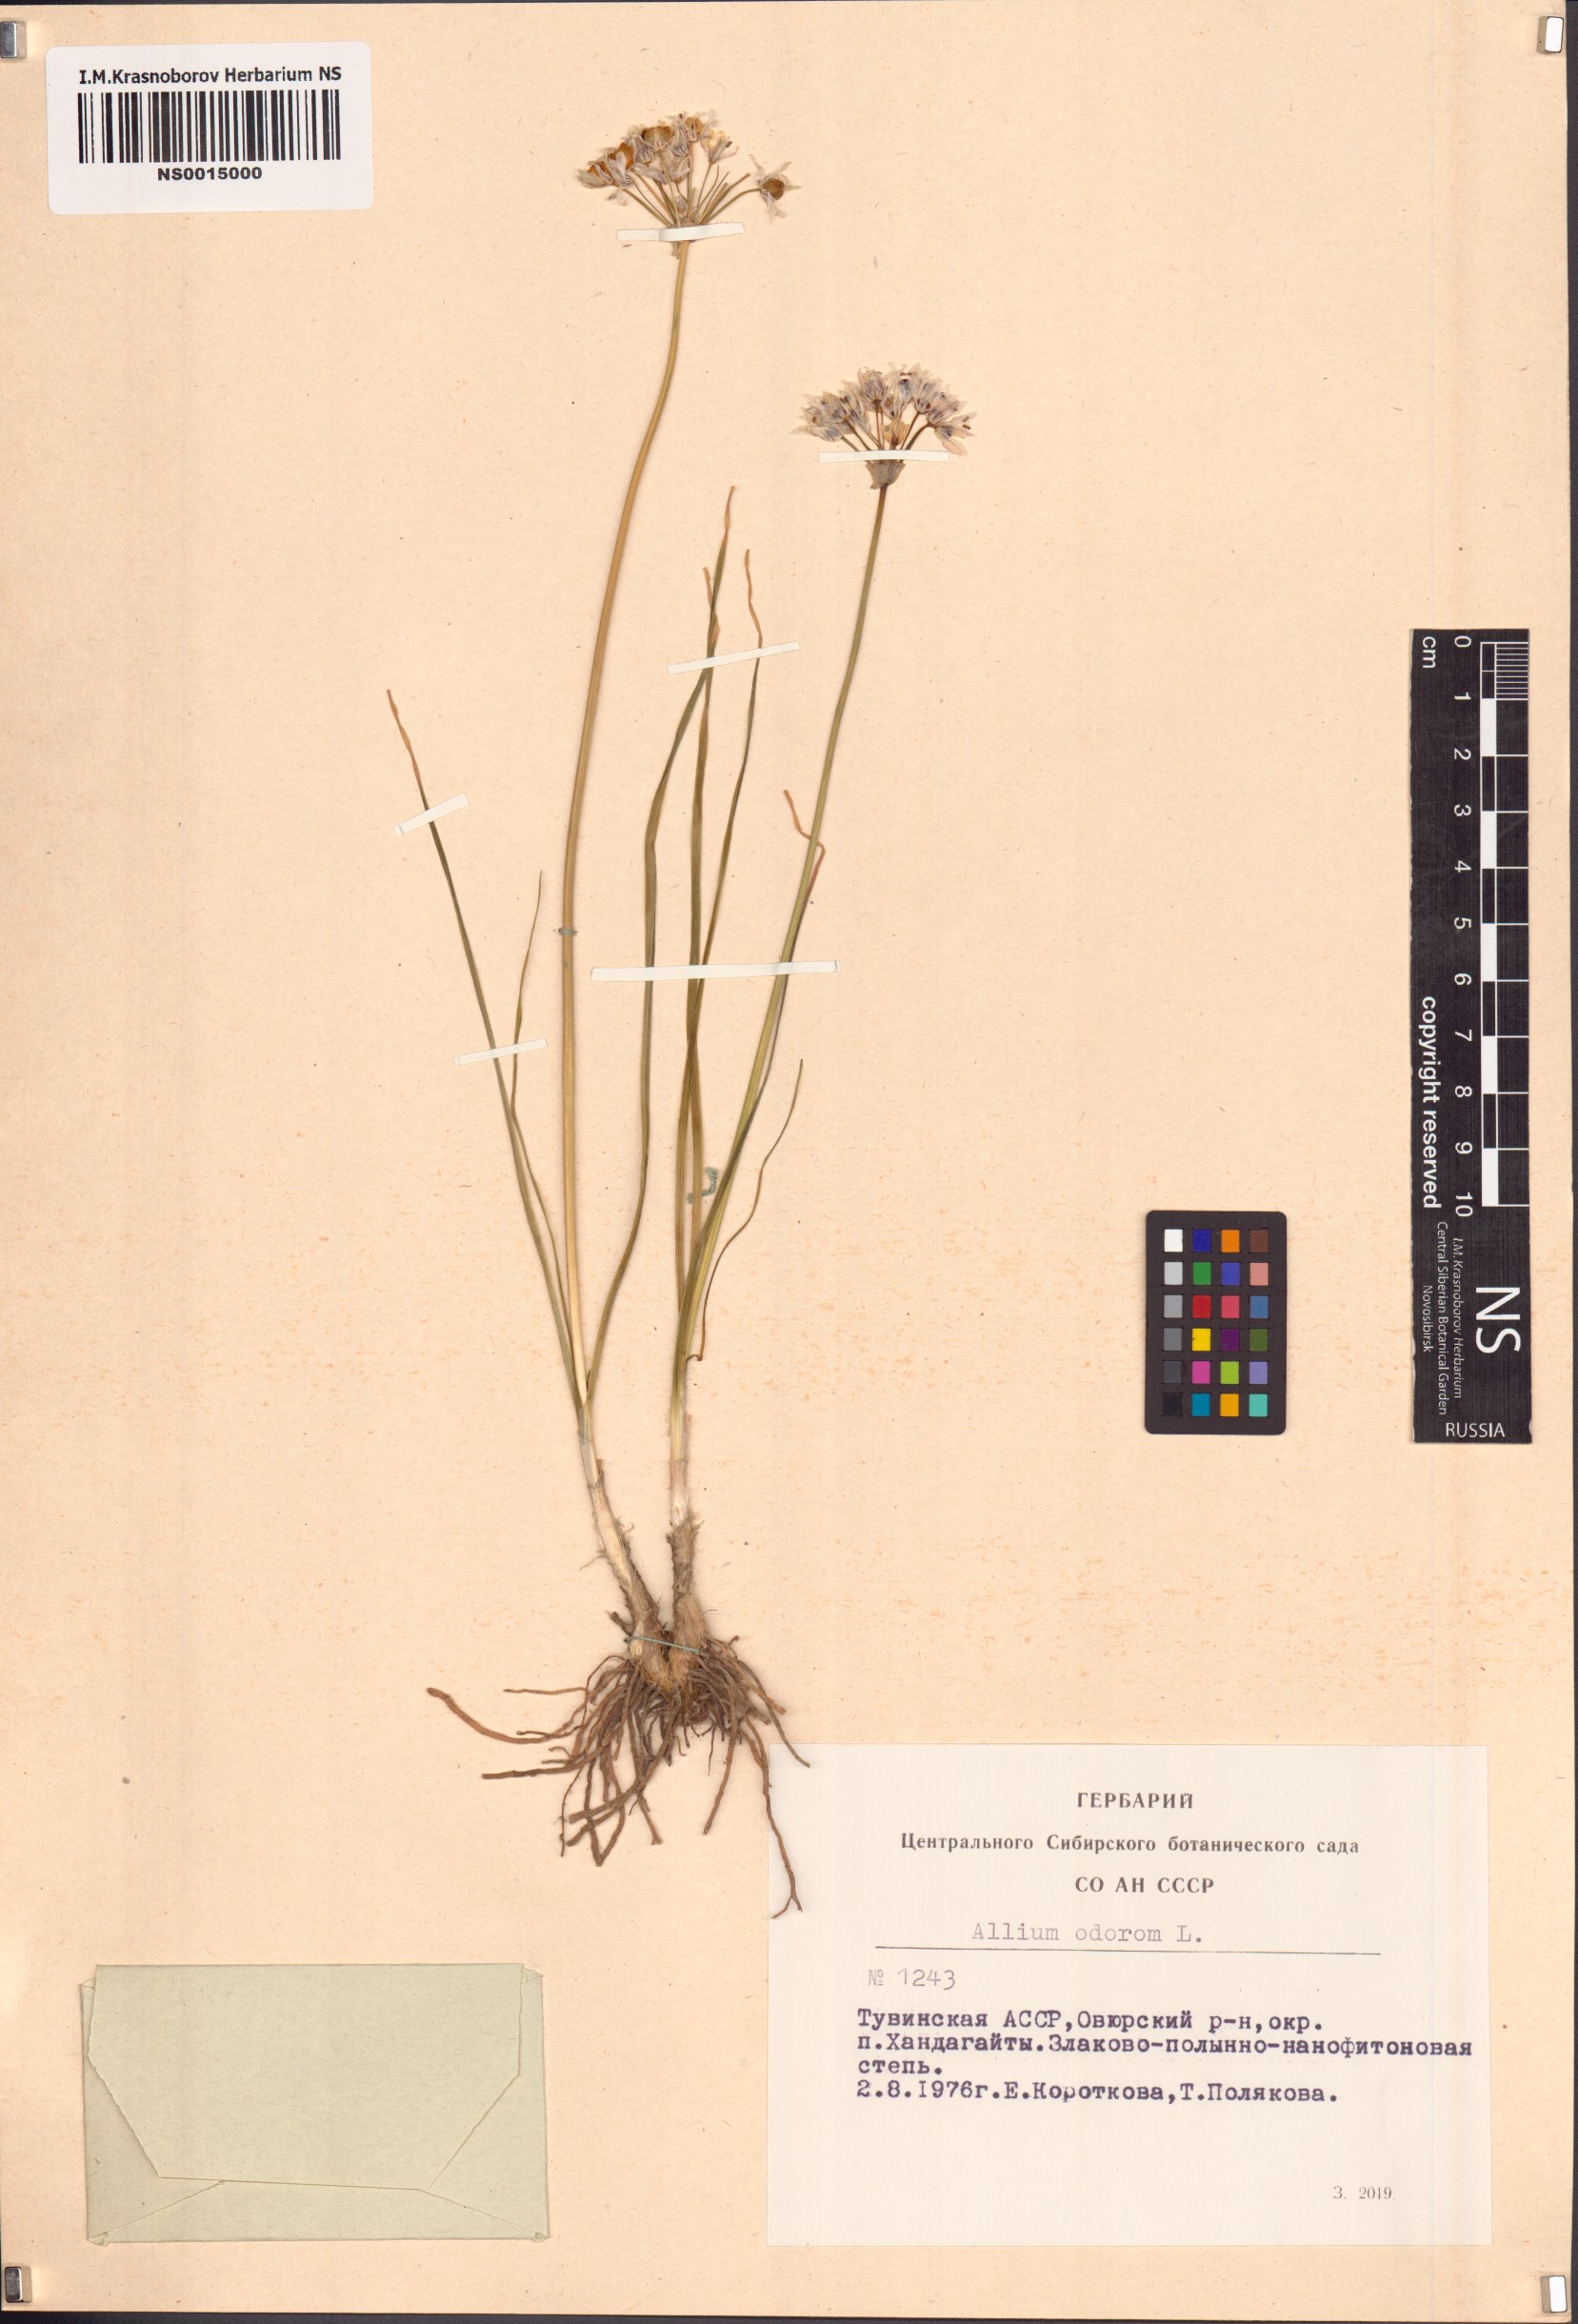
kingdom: Plantae
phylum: Tracheophyta
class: Liliopsida
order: Asparagales
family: Amaryllidaceae
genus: Allium
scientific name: Allium ramosum
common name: Fragrant garlic
